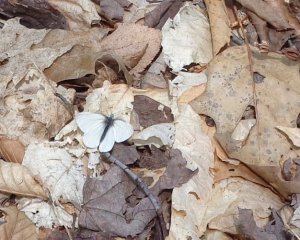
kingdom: Animalia
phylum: Arthropoda
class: Insecta
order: Lepidoptera
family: Pieridae
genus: Pieris
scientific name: Pieris virginiensis
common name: West Virginia White
